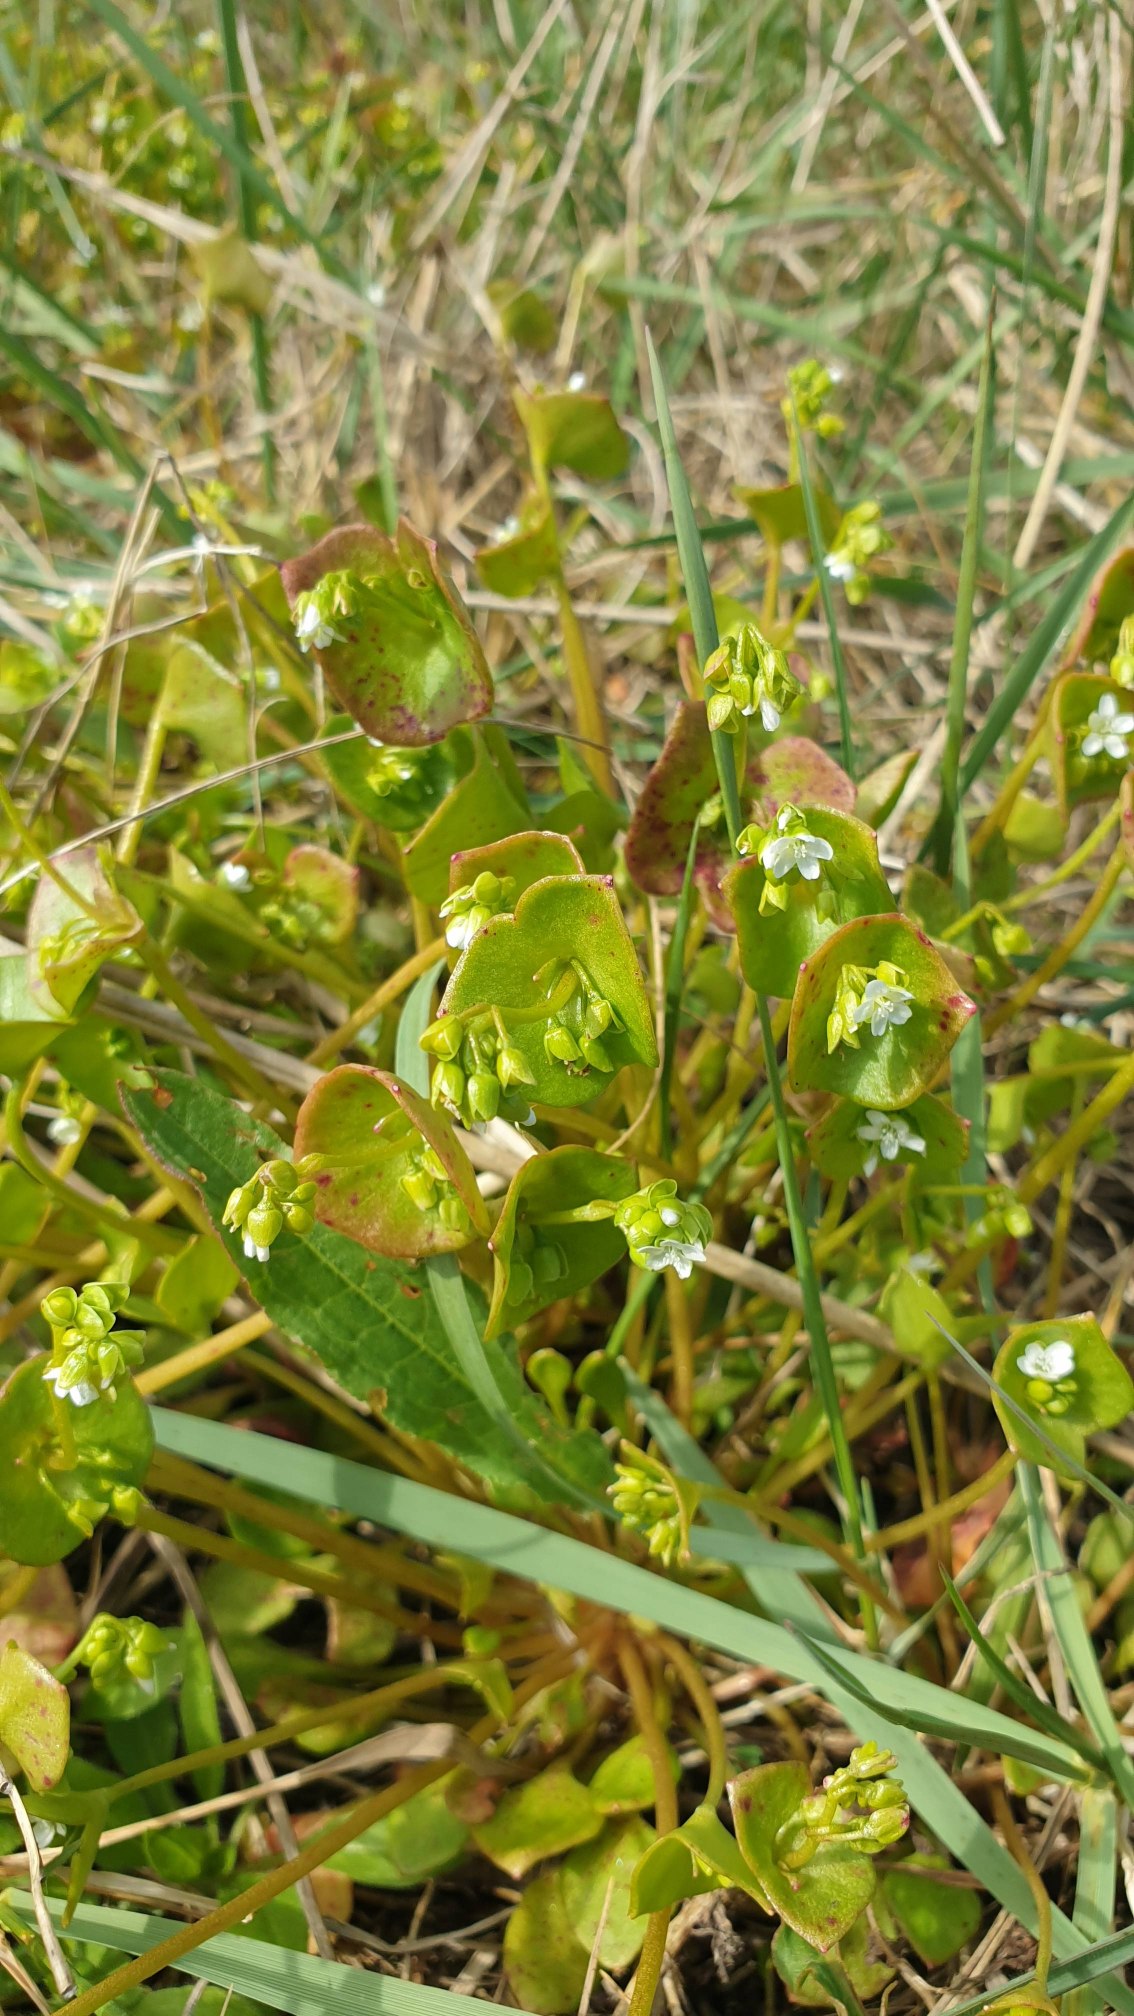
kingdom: Plantae
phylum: Tracheophyta
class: Magnoliopsida
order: Caryophyllales
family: Montiaceae
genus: Claytonia
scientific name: Claytonia perfoliata
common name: Spiselig vinterportulak
